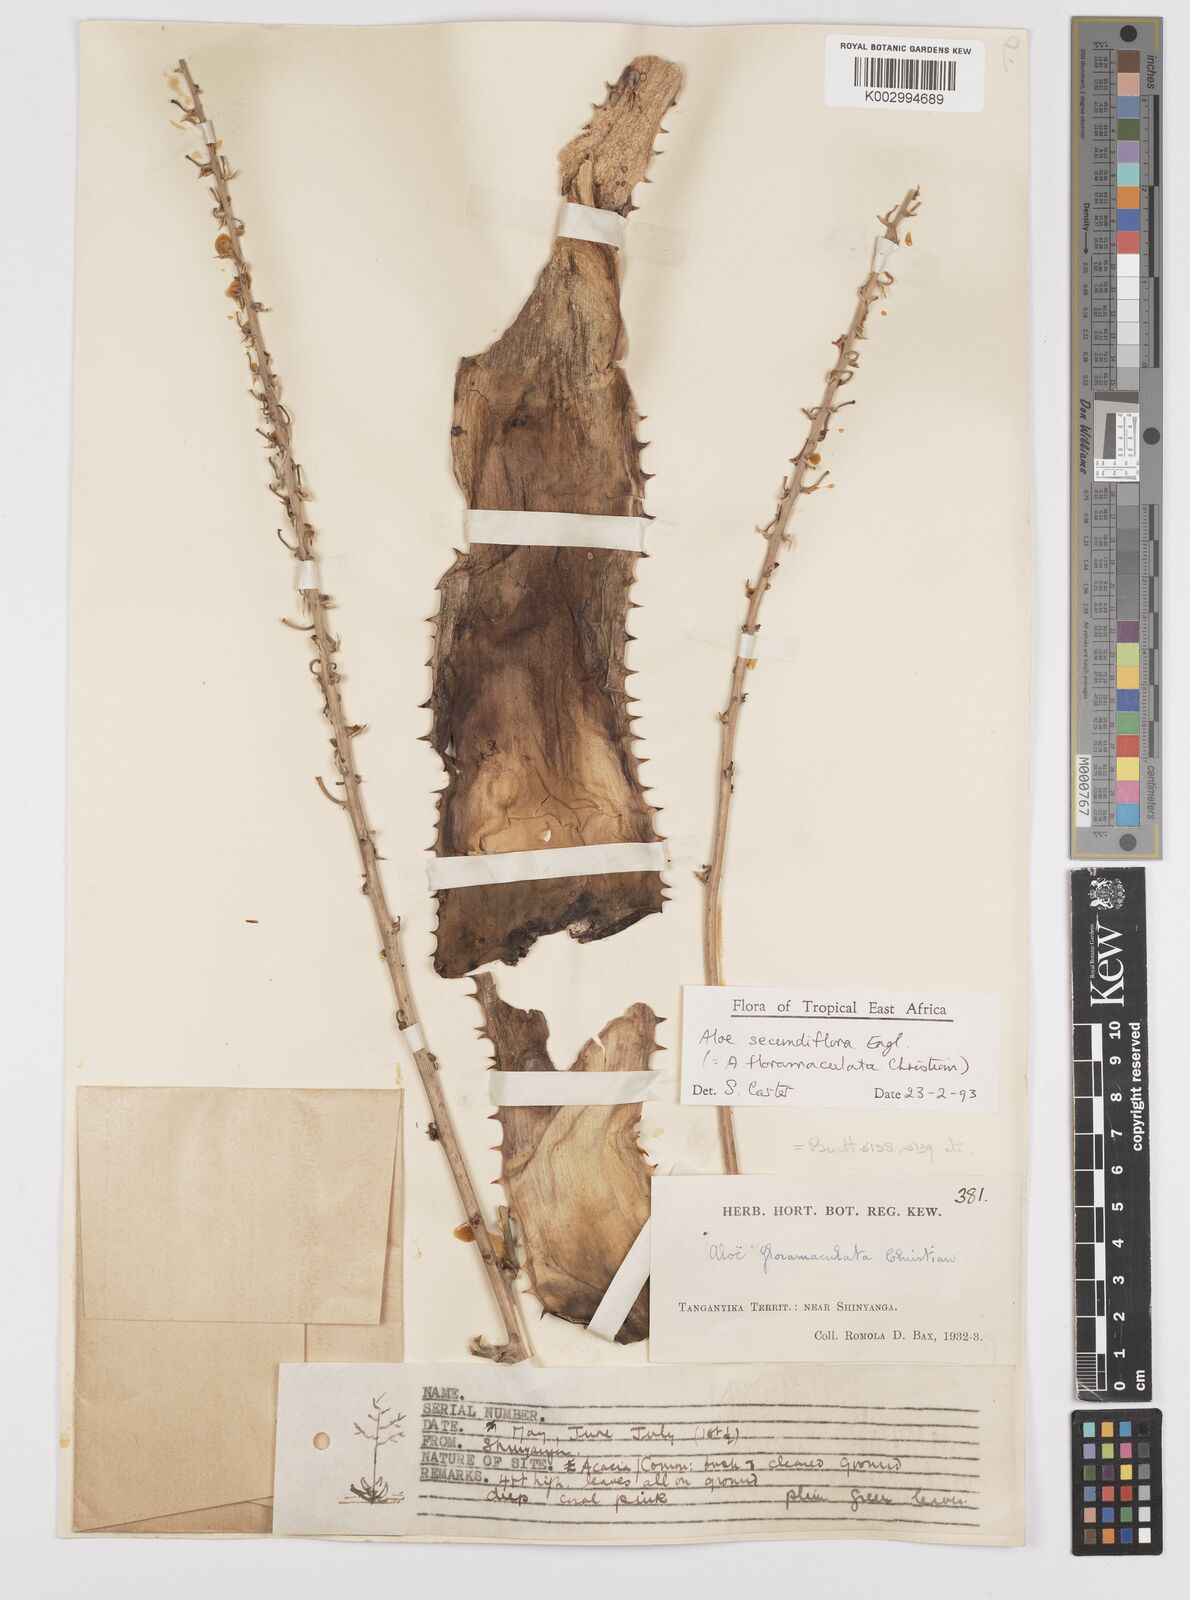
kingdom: Plantae
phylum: Tracheophyta
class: Liliopsida
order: Asparagales
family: Asphodelaceae
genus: Aloe
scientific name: Aloe secundiflora
